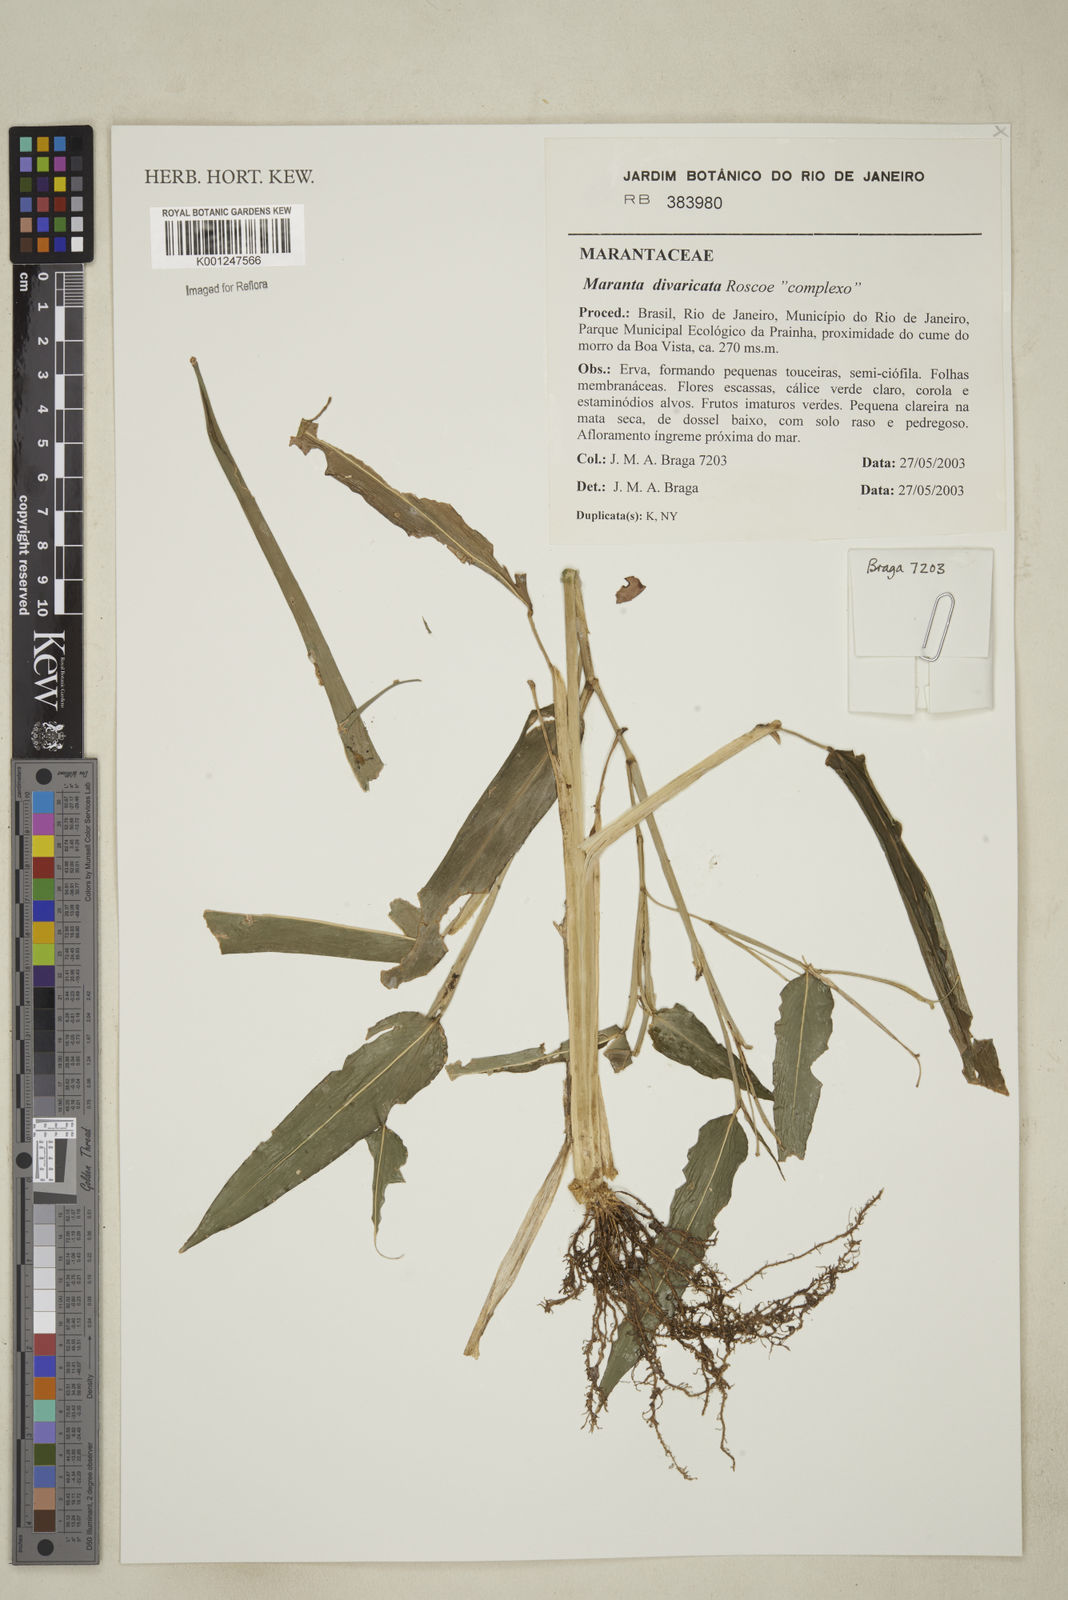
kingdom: Plantae
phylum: Tracheophyta
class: Liliopsida
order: Zingiberales
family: Marantaceae
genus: Maranta
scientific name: Maranta divaricata
